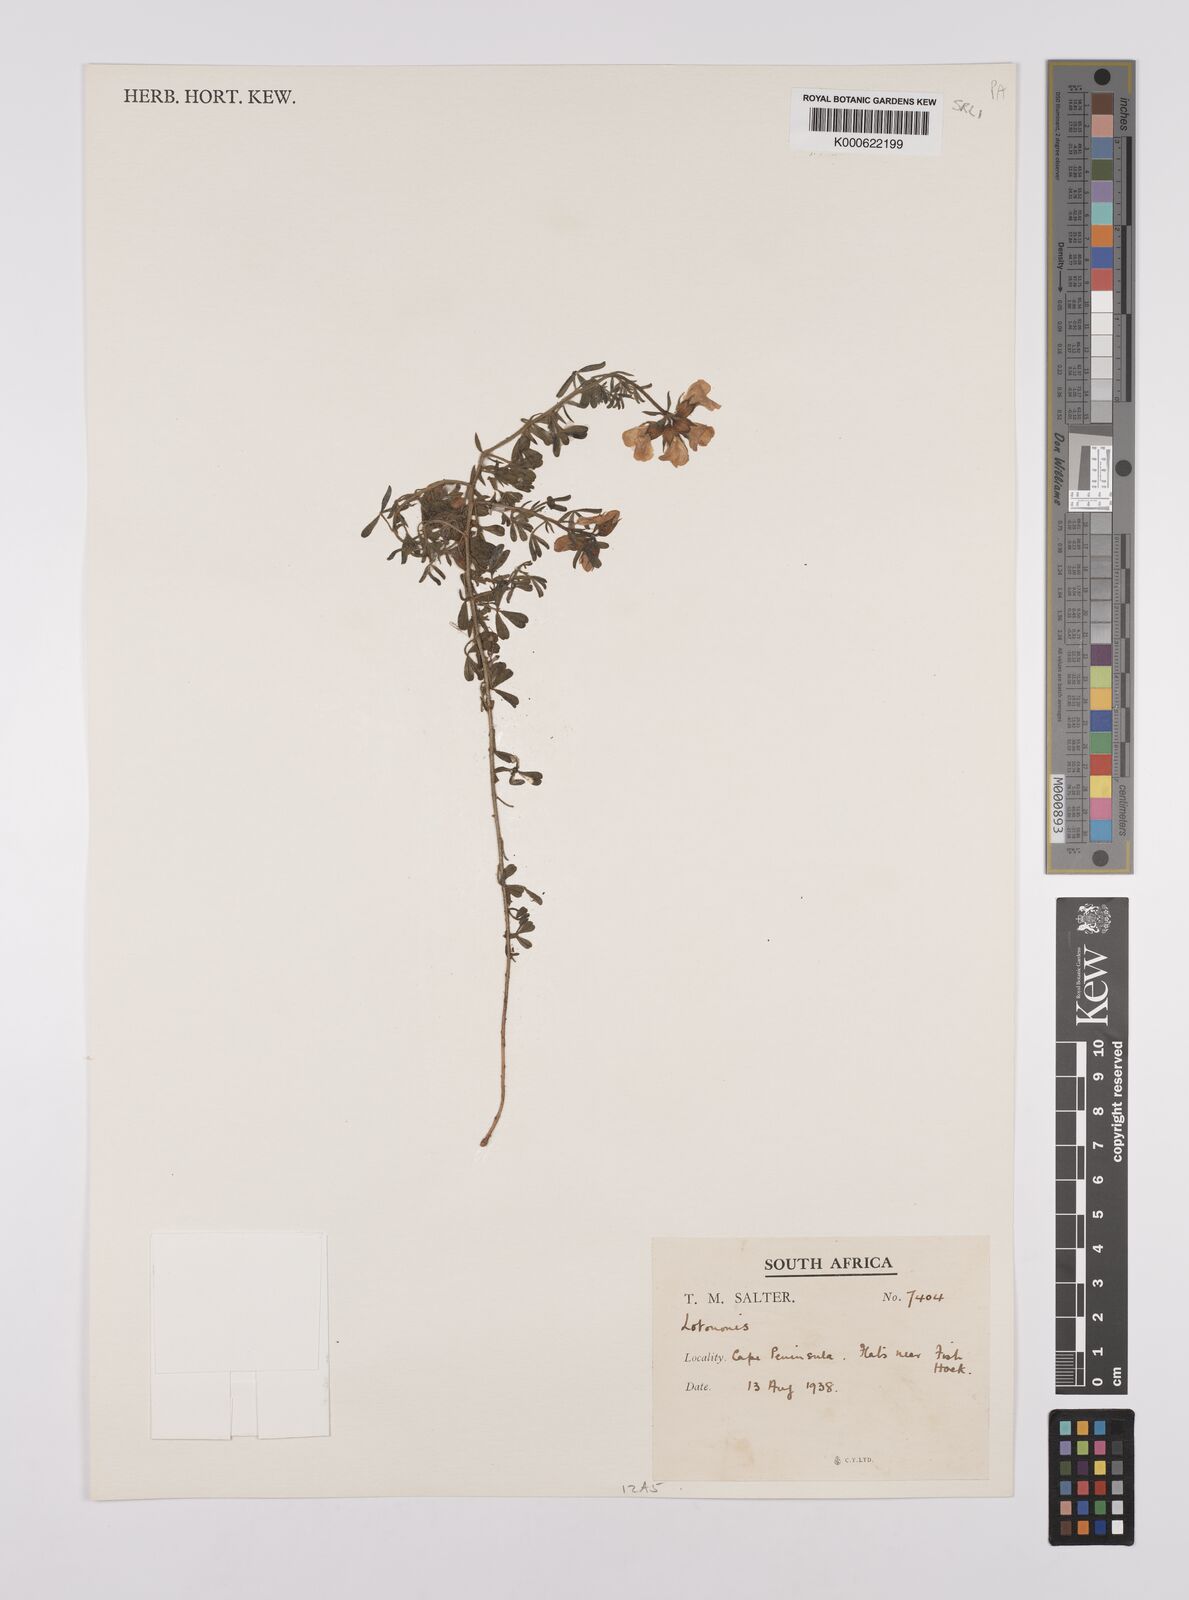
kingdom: Plantae
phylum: Tracheophyta
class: Magnoliopsida
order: Fabales
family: Fabaceae
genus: Lotononis
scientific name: Lotononis involucrata
